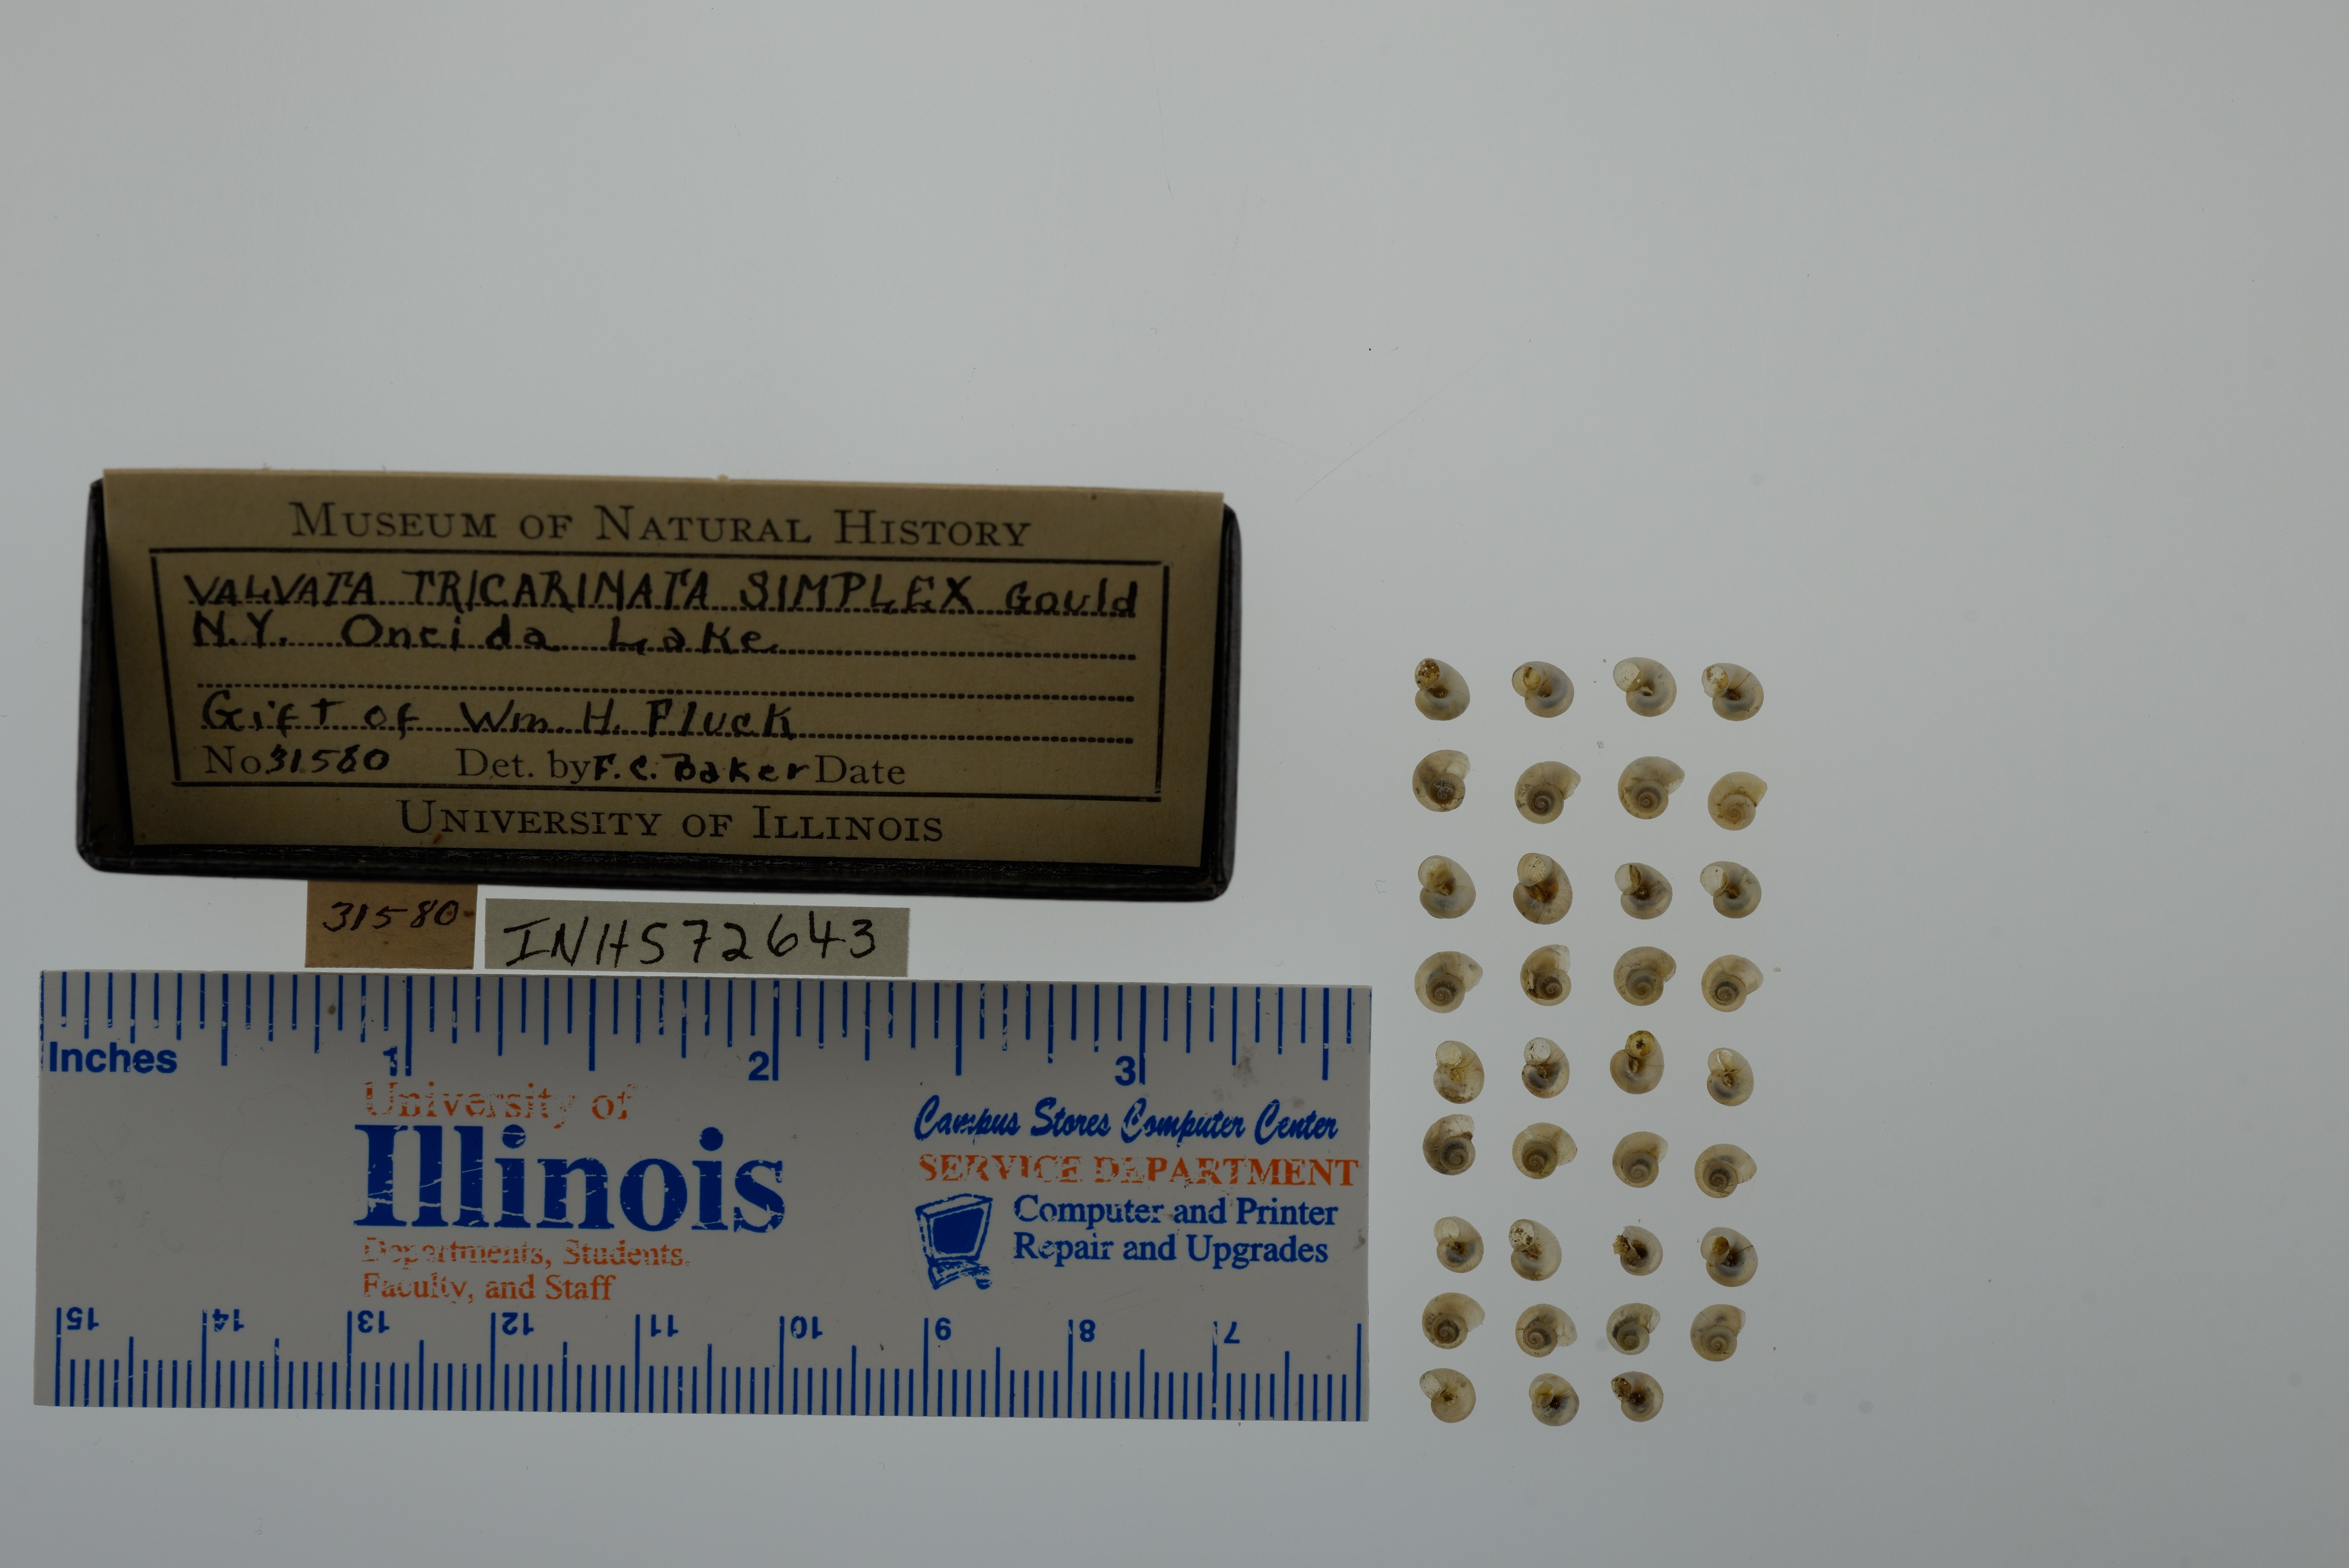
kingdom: Animalia
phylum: Mollusca
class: Gastropoda
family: Valvatidae
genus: Valvata
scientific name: Valvata tricarinata
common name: Three-ridge valvata
